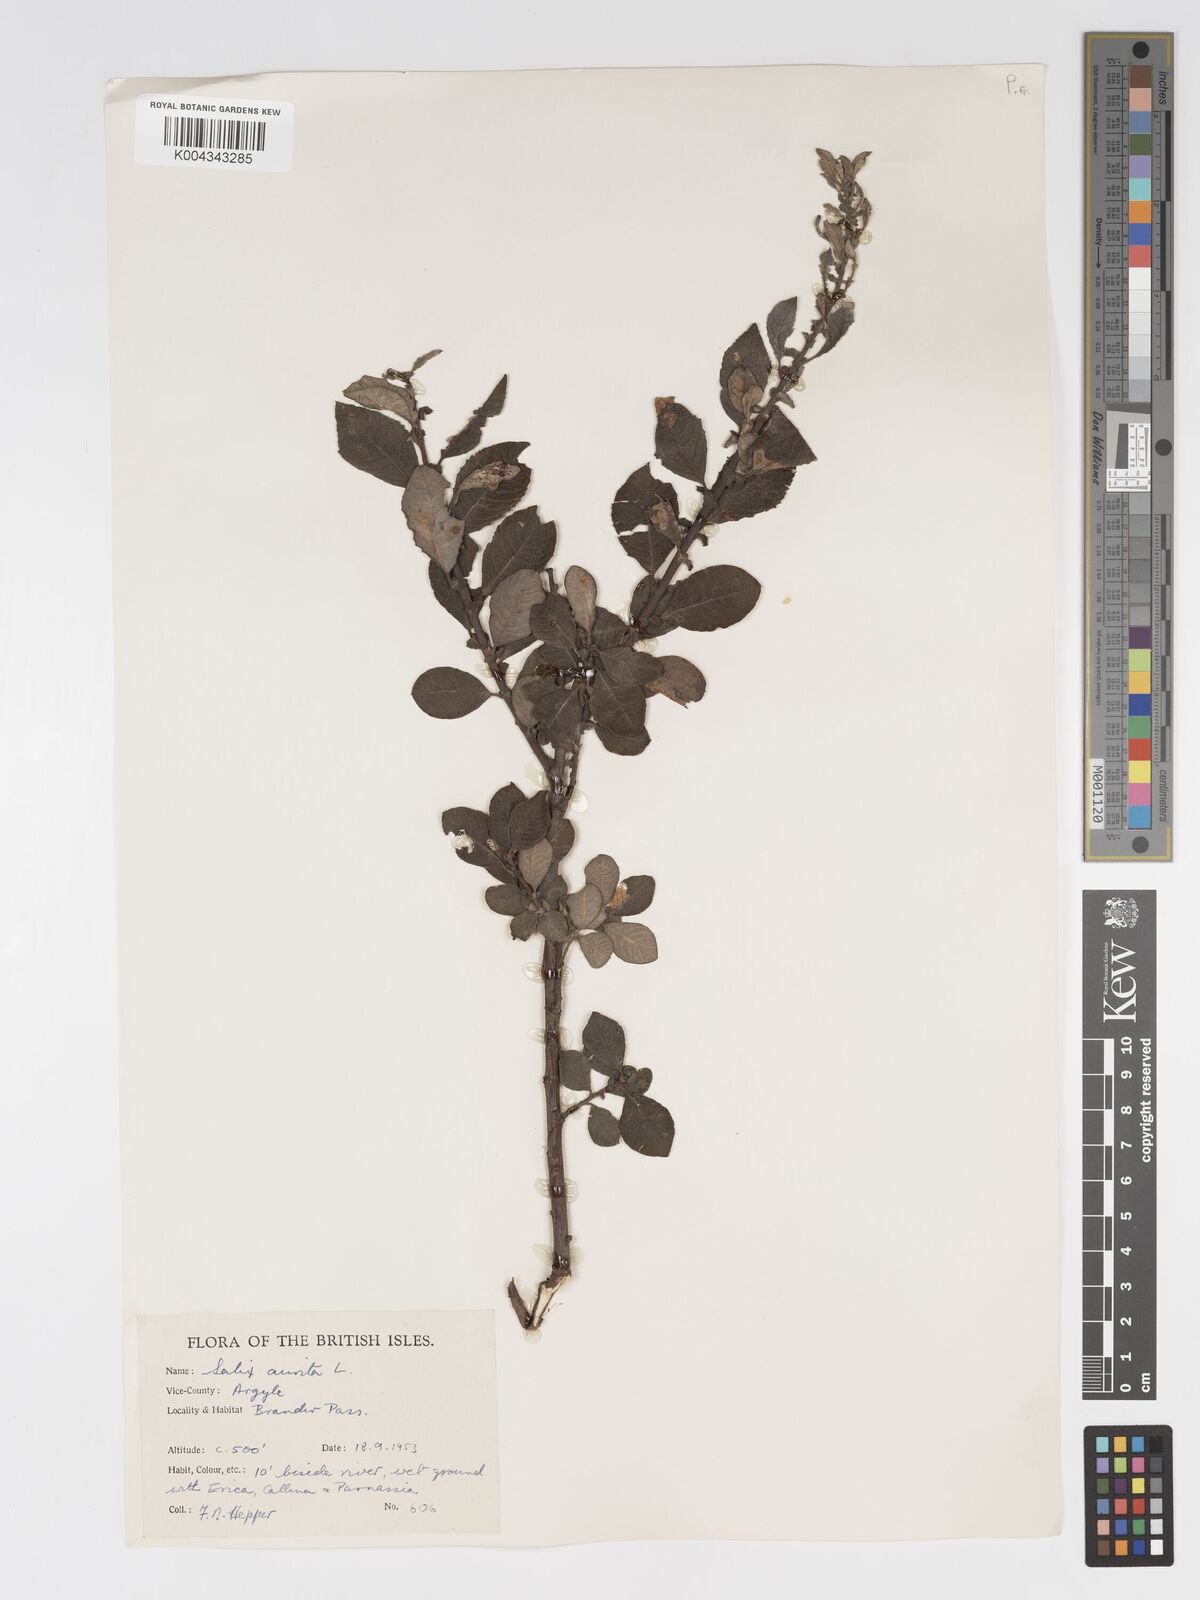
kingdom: Plantae
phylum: Tracheophyta
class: Magnoliopsida
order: Malpighiales
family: Salicaceae
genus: Salix
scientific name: Salix aurita
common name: Eared willow
